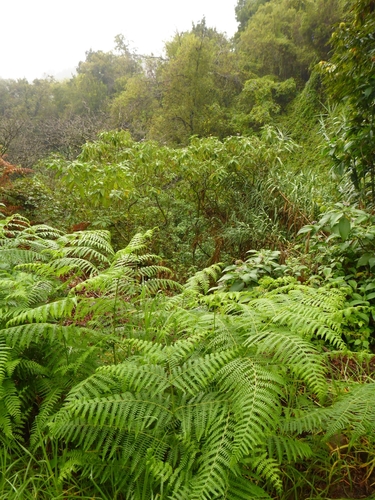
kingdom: Plantae
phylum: Tracheophyta
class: Polypodiopsida
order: Polypodiales
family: Dennstaedtiaceae
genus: Pteridium
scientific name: Pteridium aquilinum
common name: Bracken
